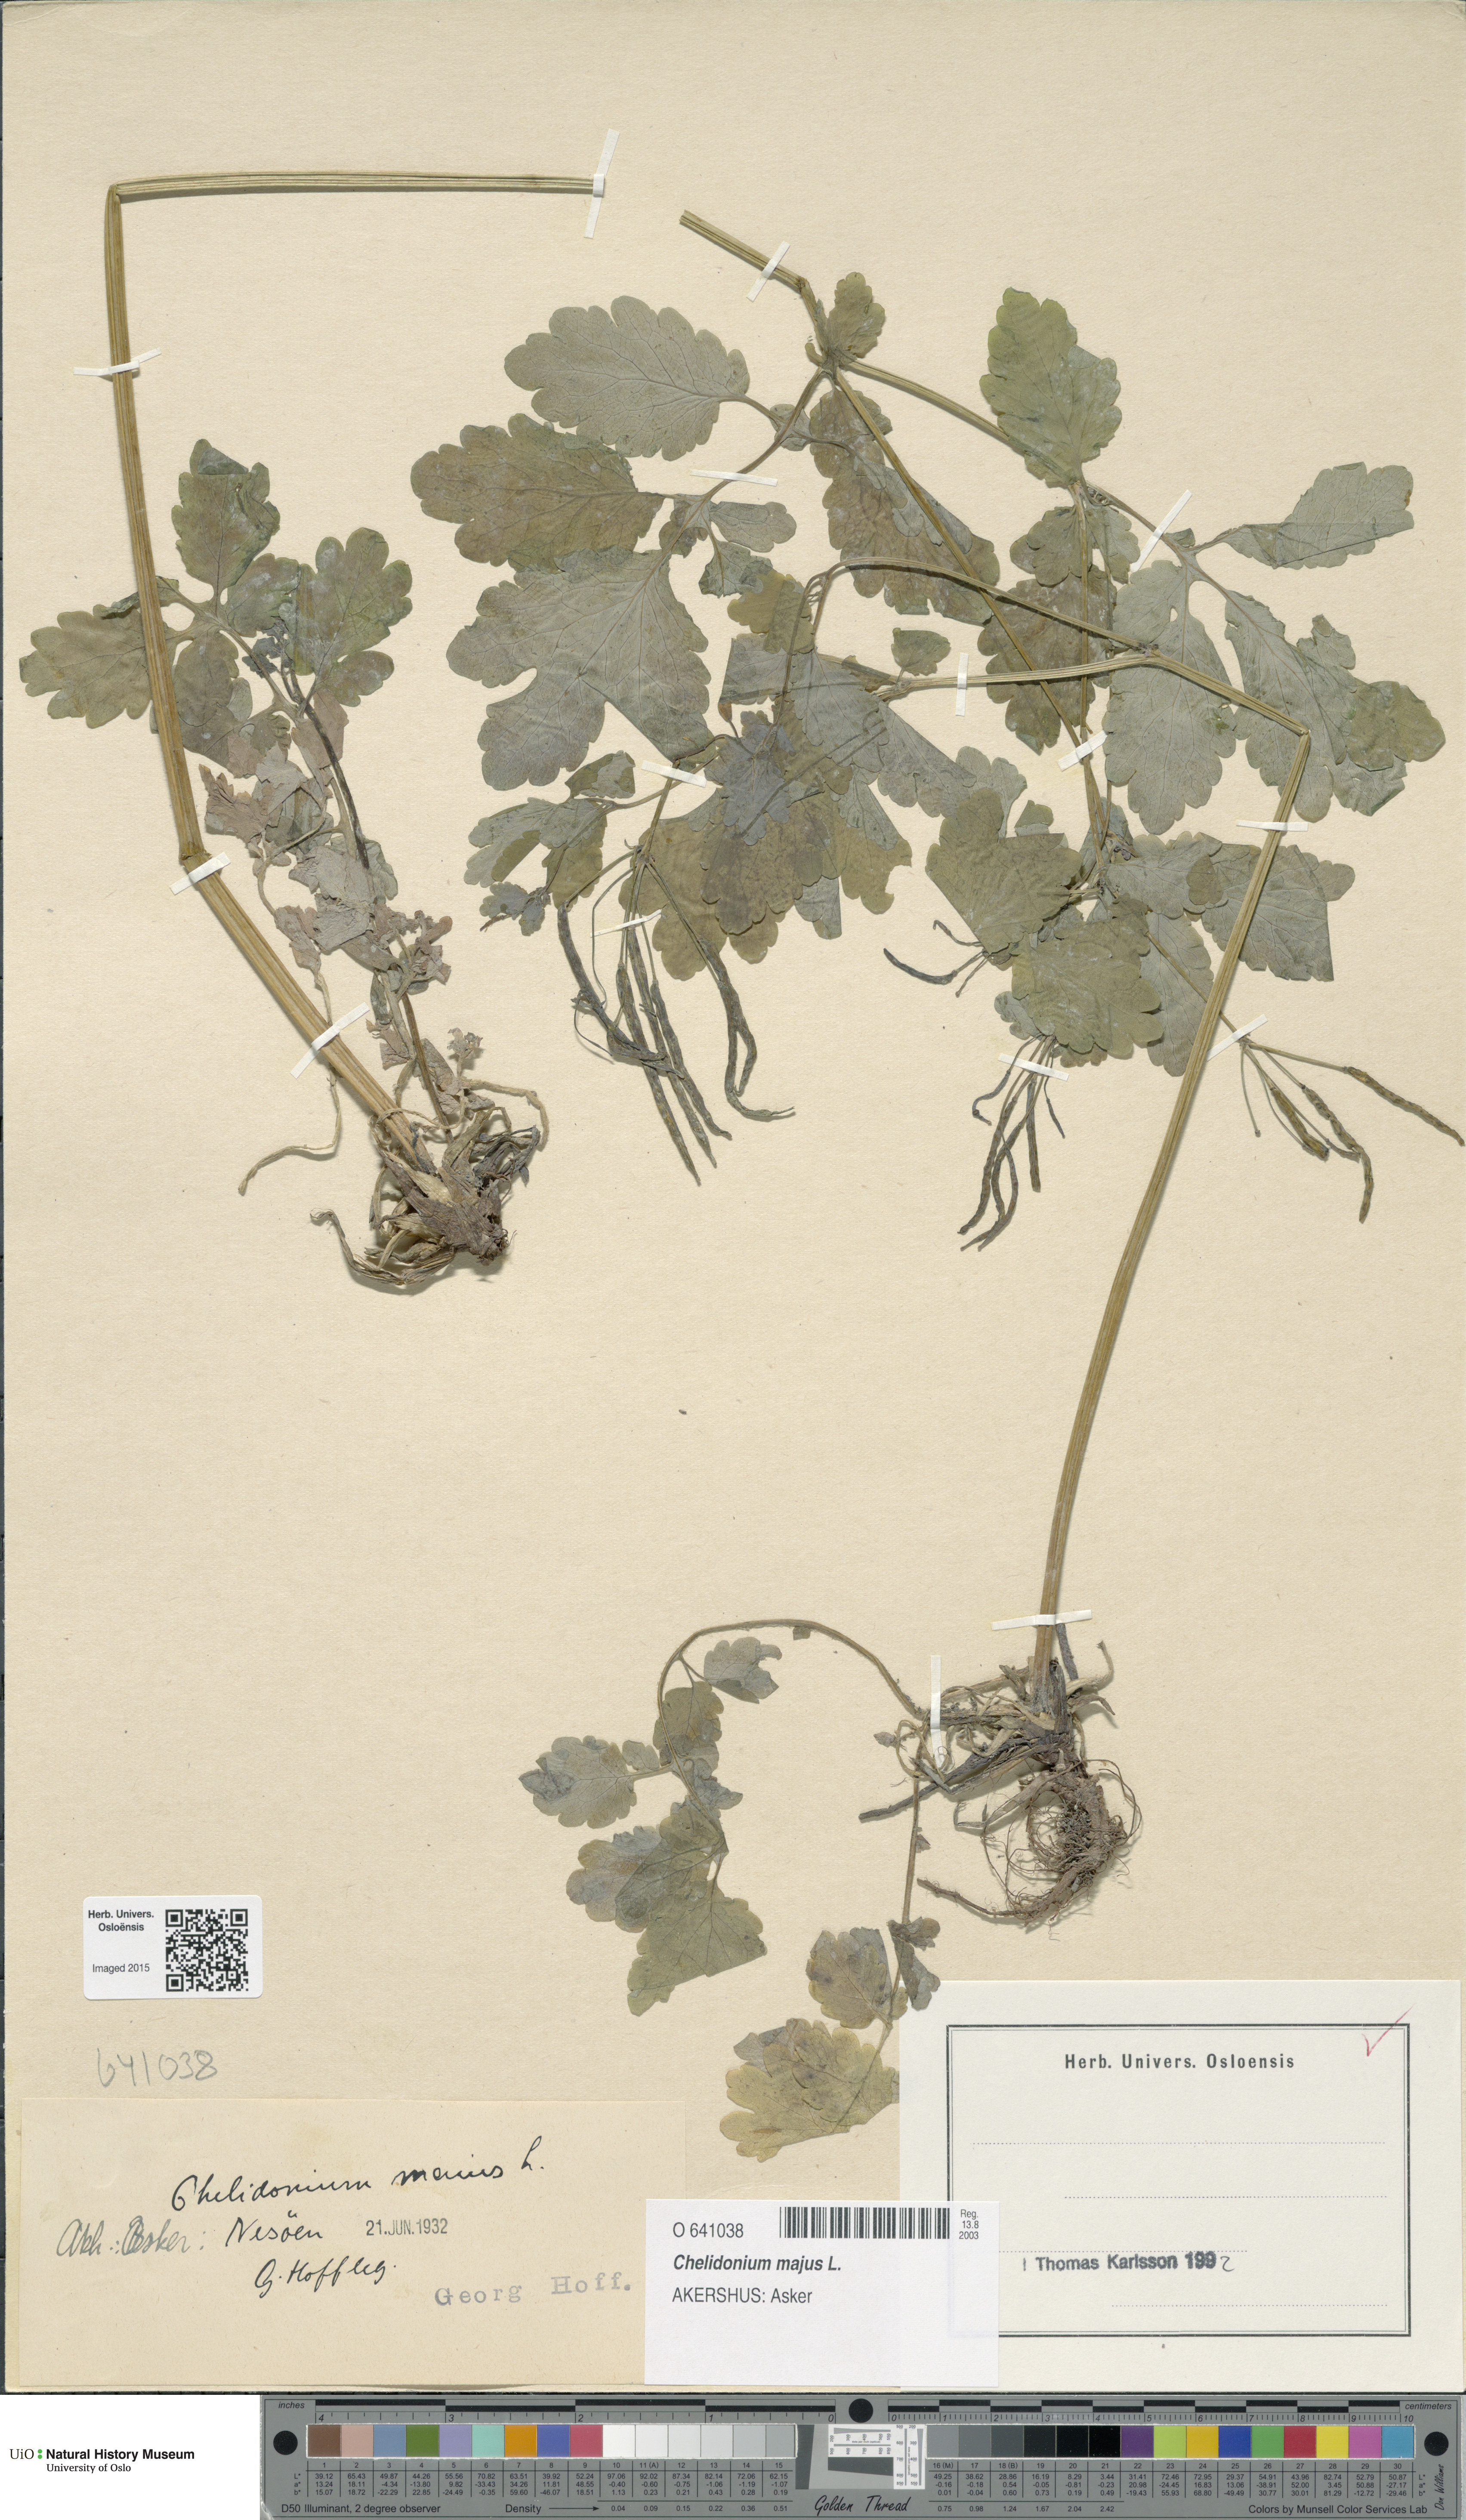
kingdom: Plantae
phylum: Tracheophyta
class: Magnoliopsida
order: Ranunculales
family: Papaveraceae
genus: Chelidonium
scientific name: Chelidonium majus
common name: Greater celandine
